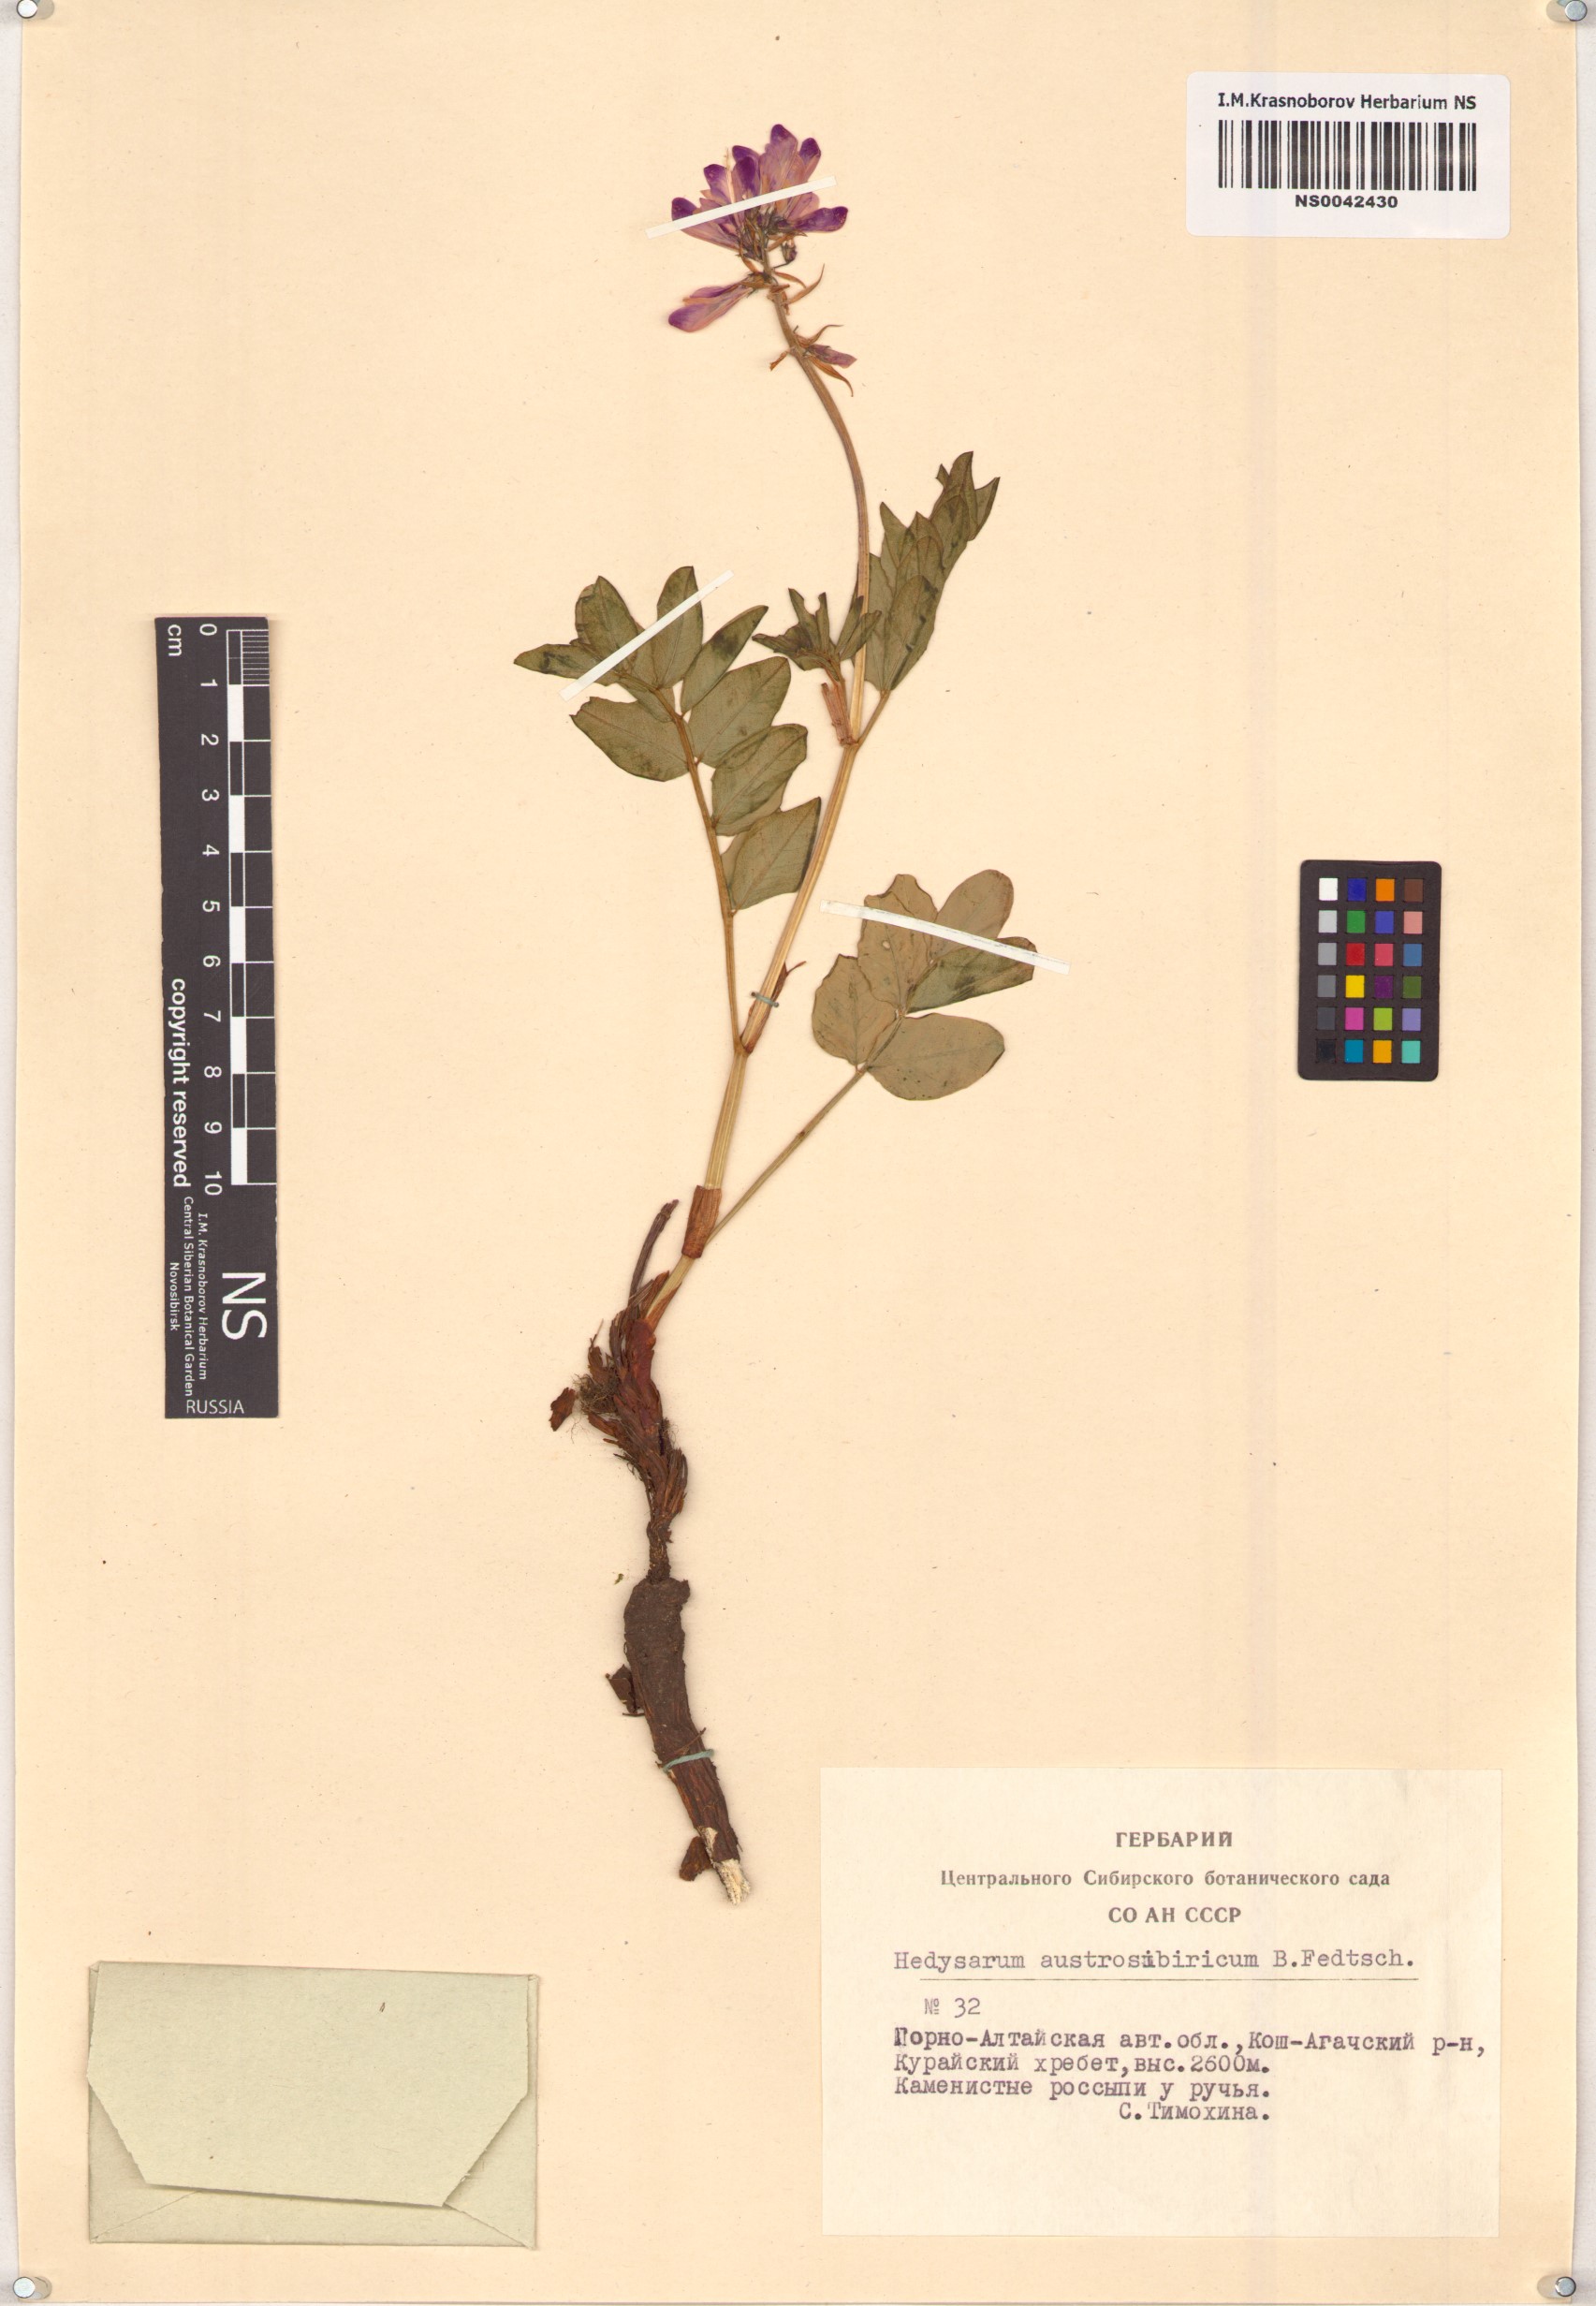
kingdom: Plantae
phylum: Tracheophyta
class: Magnoliopsida
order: Fabales
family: Fabaceae
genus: Hedysarum
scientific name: Hedysarum neglectum
